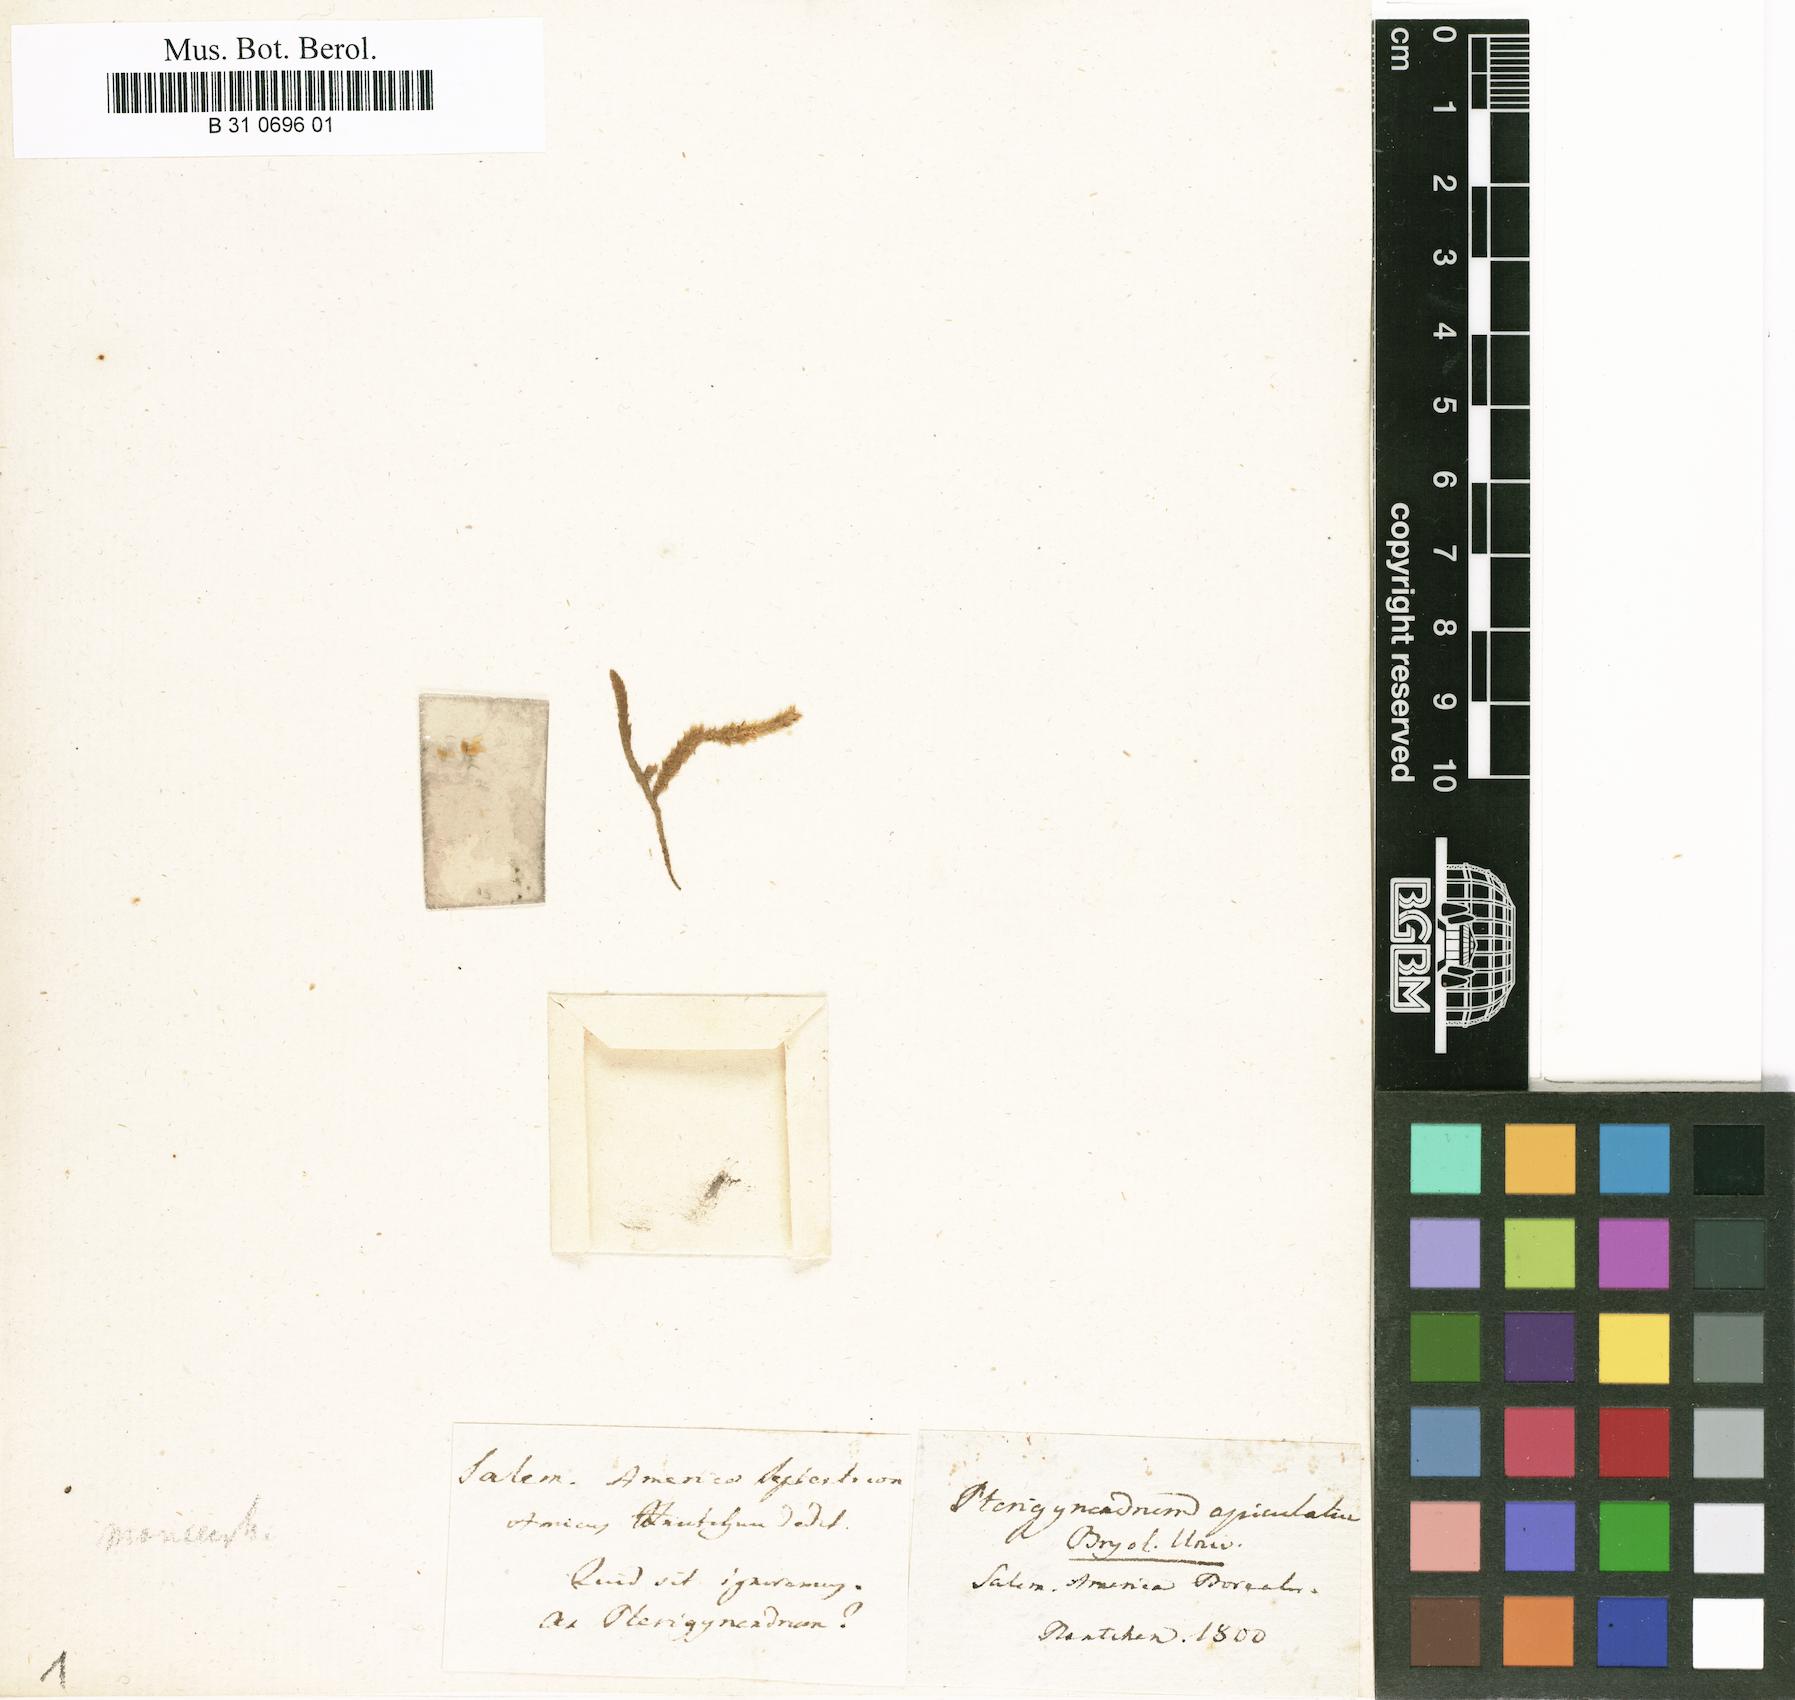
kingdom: Plantae
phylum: Bryophyta
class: Bryopsida
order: Hypnales
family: Brachytheciaceae
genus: Oxyrrhynchium
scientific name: Oxyrrhynchium hians
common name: Spreading beaked moss
